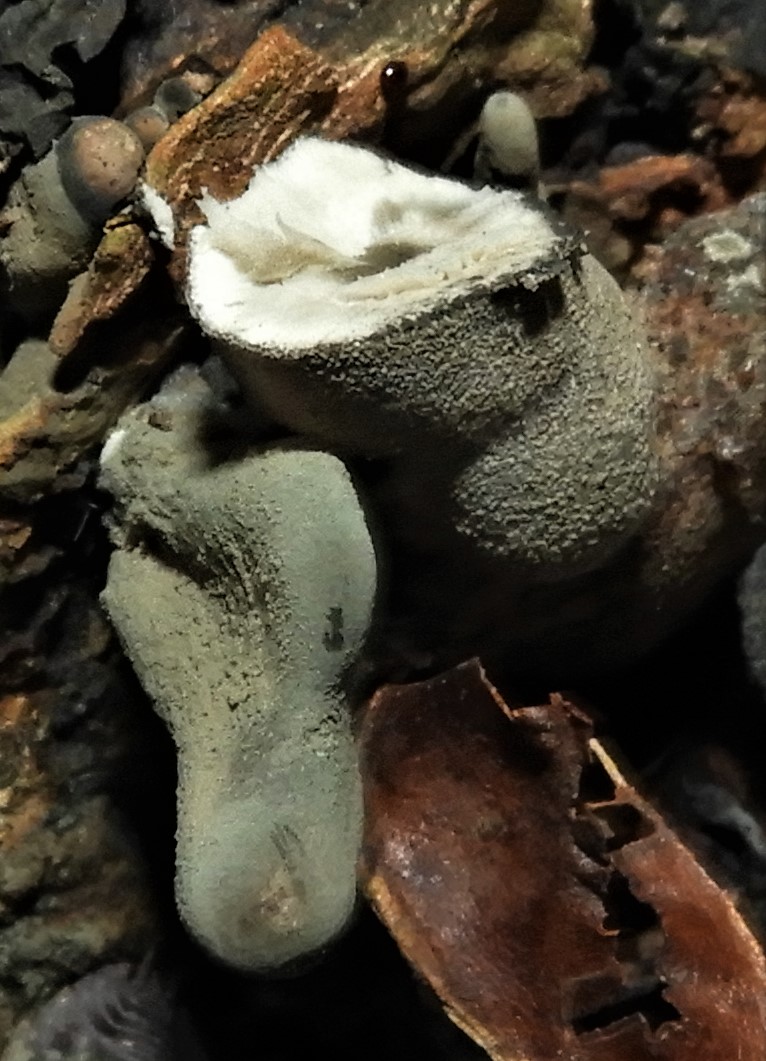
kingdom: Fungi
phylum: Ascomycota
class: Sordariomycetes
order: Xylariales
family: Xylariaceae
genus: Xylaria
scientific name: Xylaria polymorpha
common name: kølle-stødsvamp
